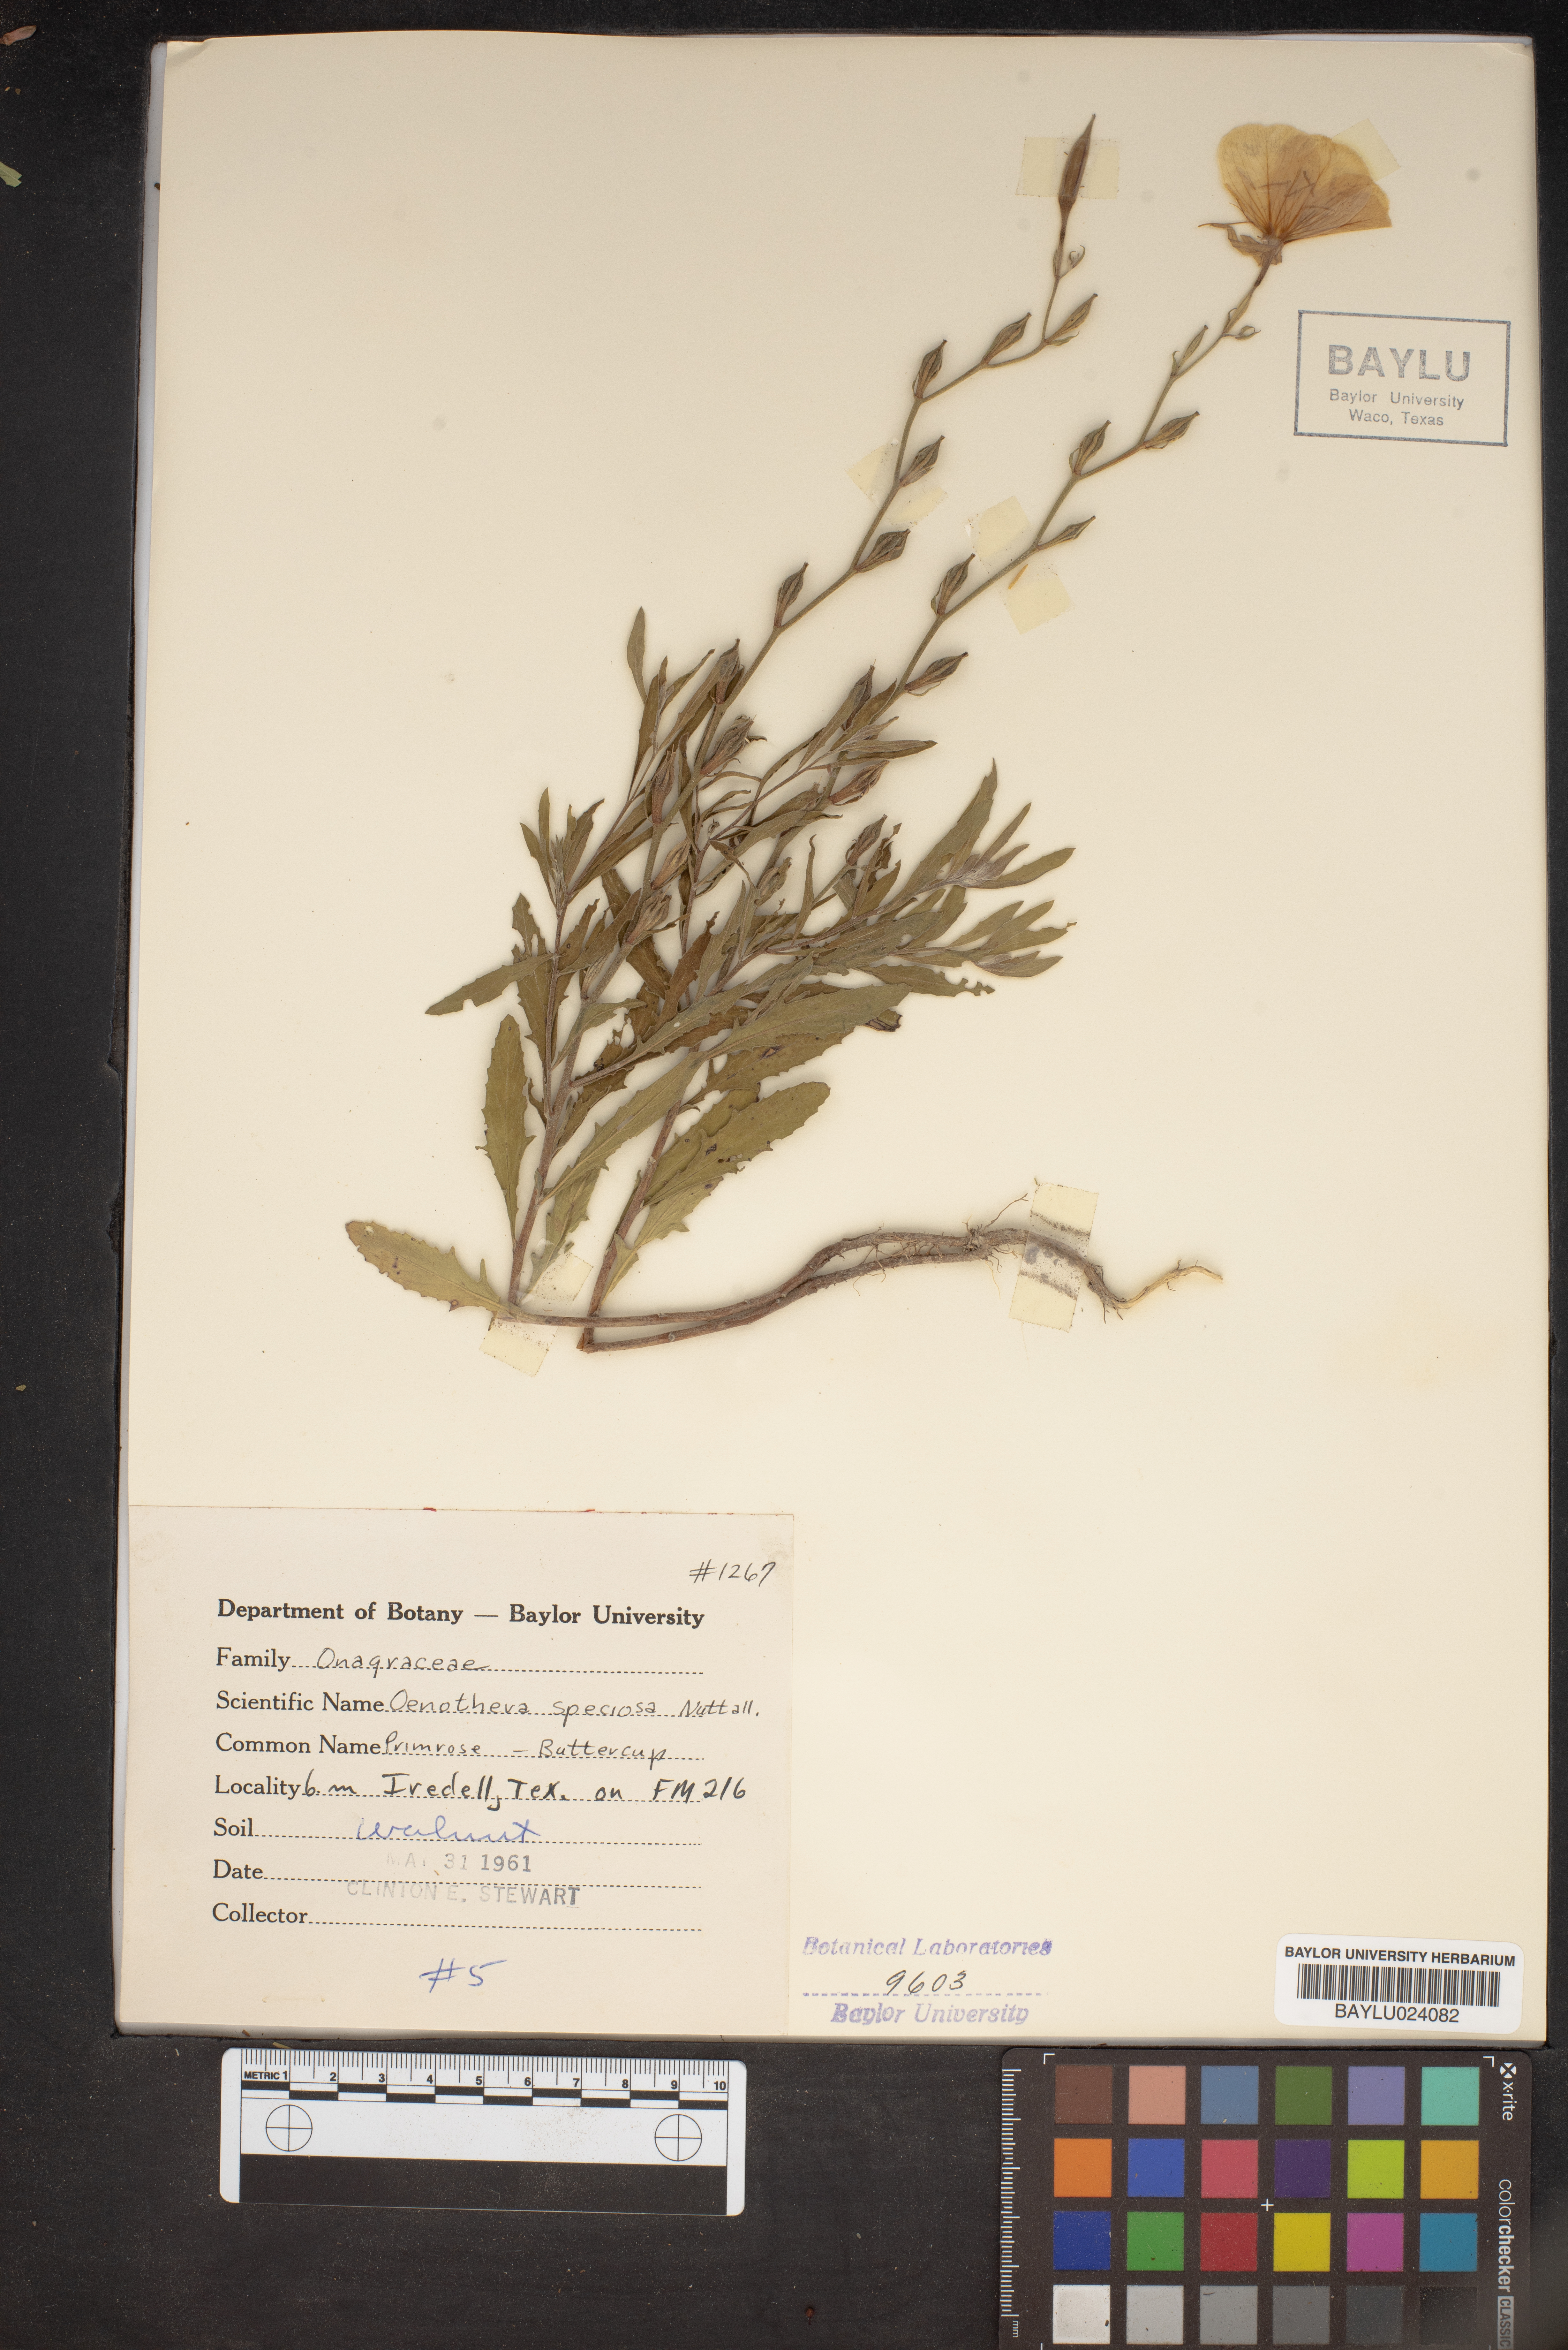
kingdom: Plantae
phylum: Tracheophyta
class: Magnoliopsida
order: Myrtales
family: Onagraceae
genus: Oenothera
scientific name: Oenothera speciosa
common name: White evening-primrose
